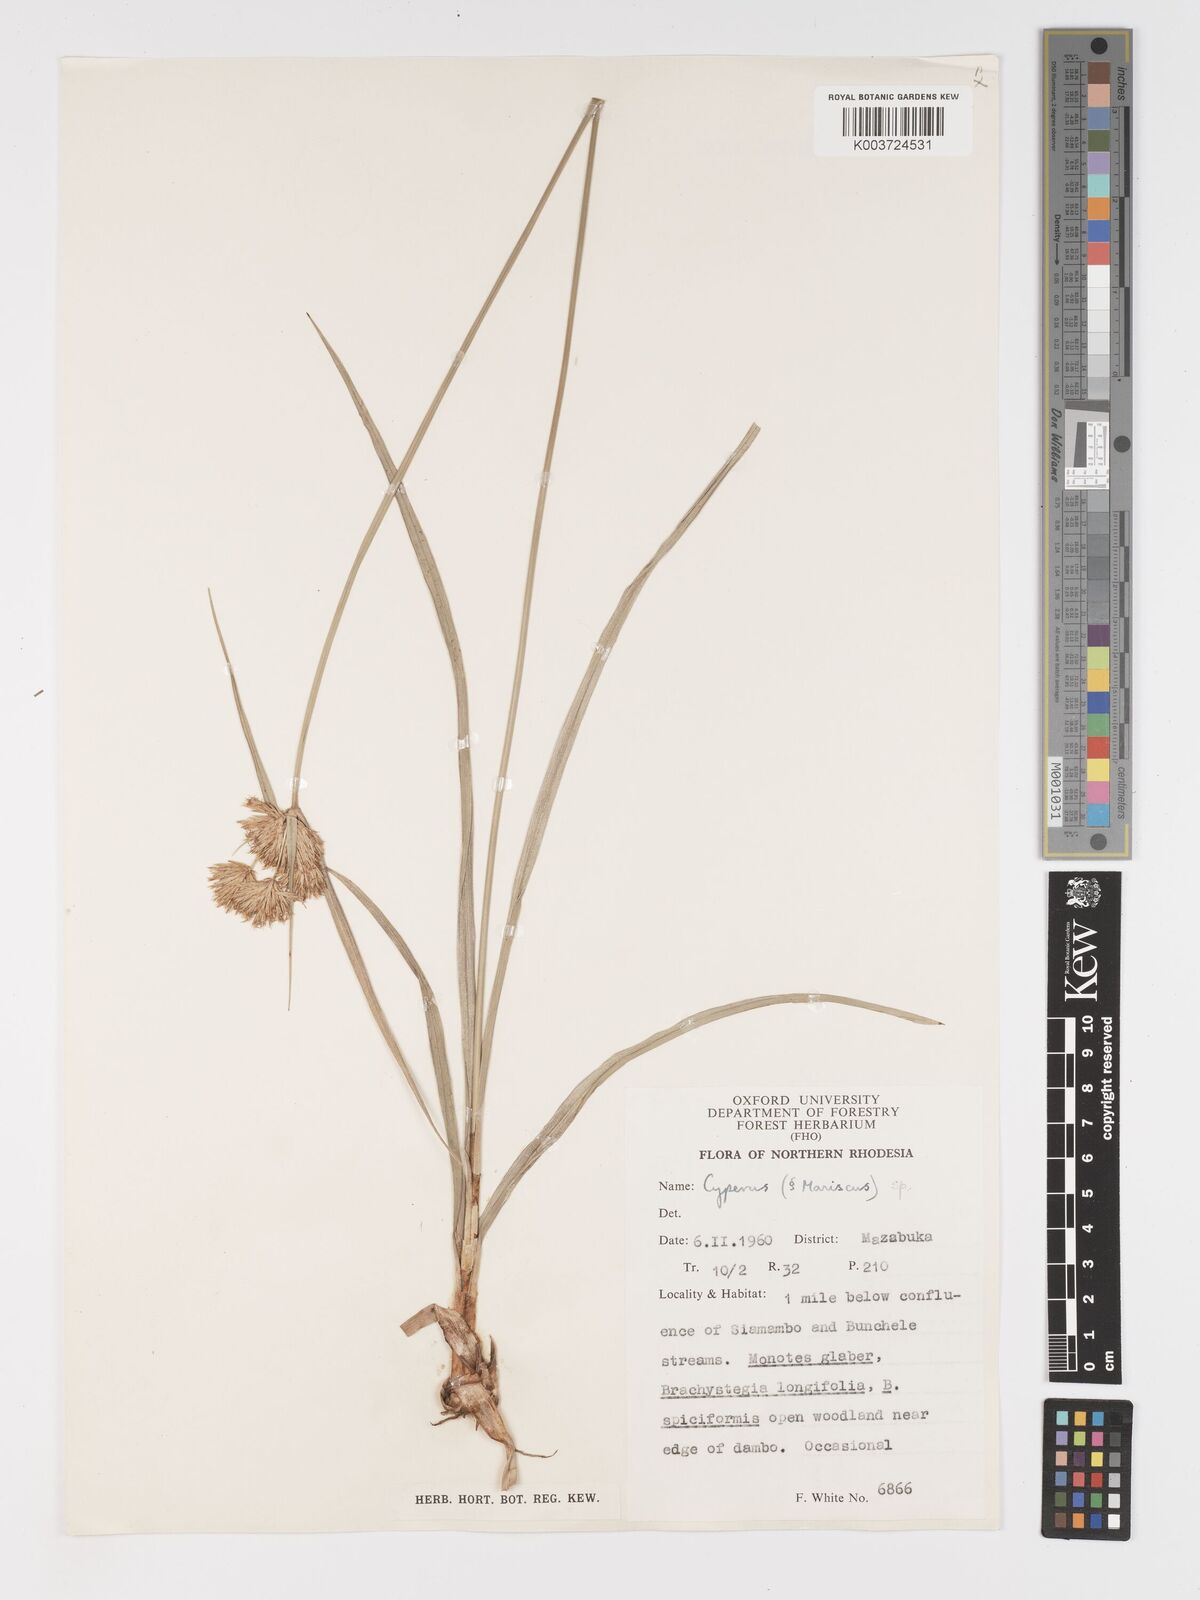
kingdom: Plantae
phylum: Tracheophyta
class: Liliopsida
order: Poales
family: Cyperaceae
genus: Cyperus
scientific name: Cyperus pubens
